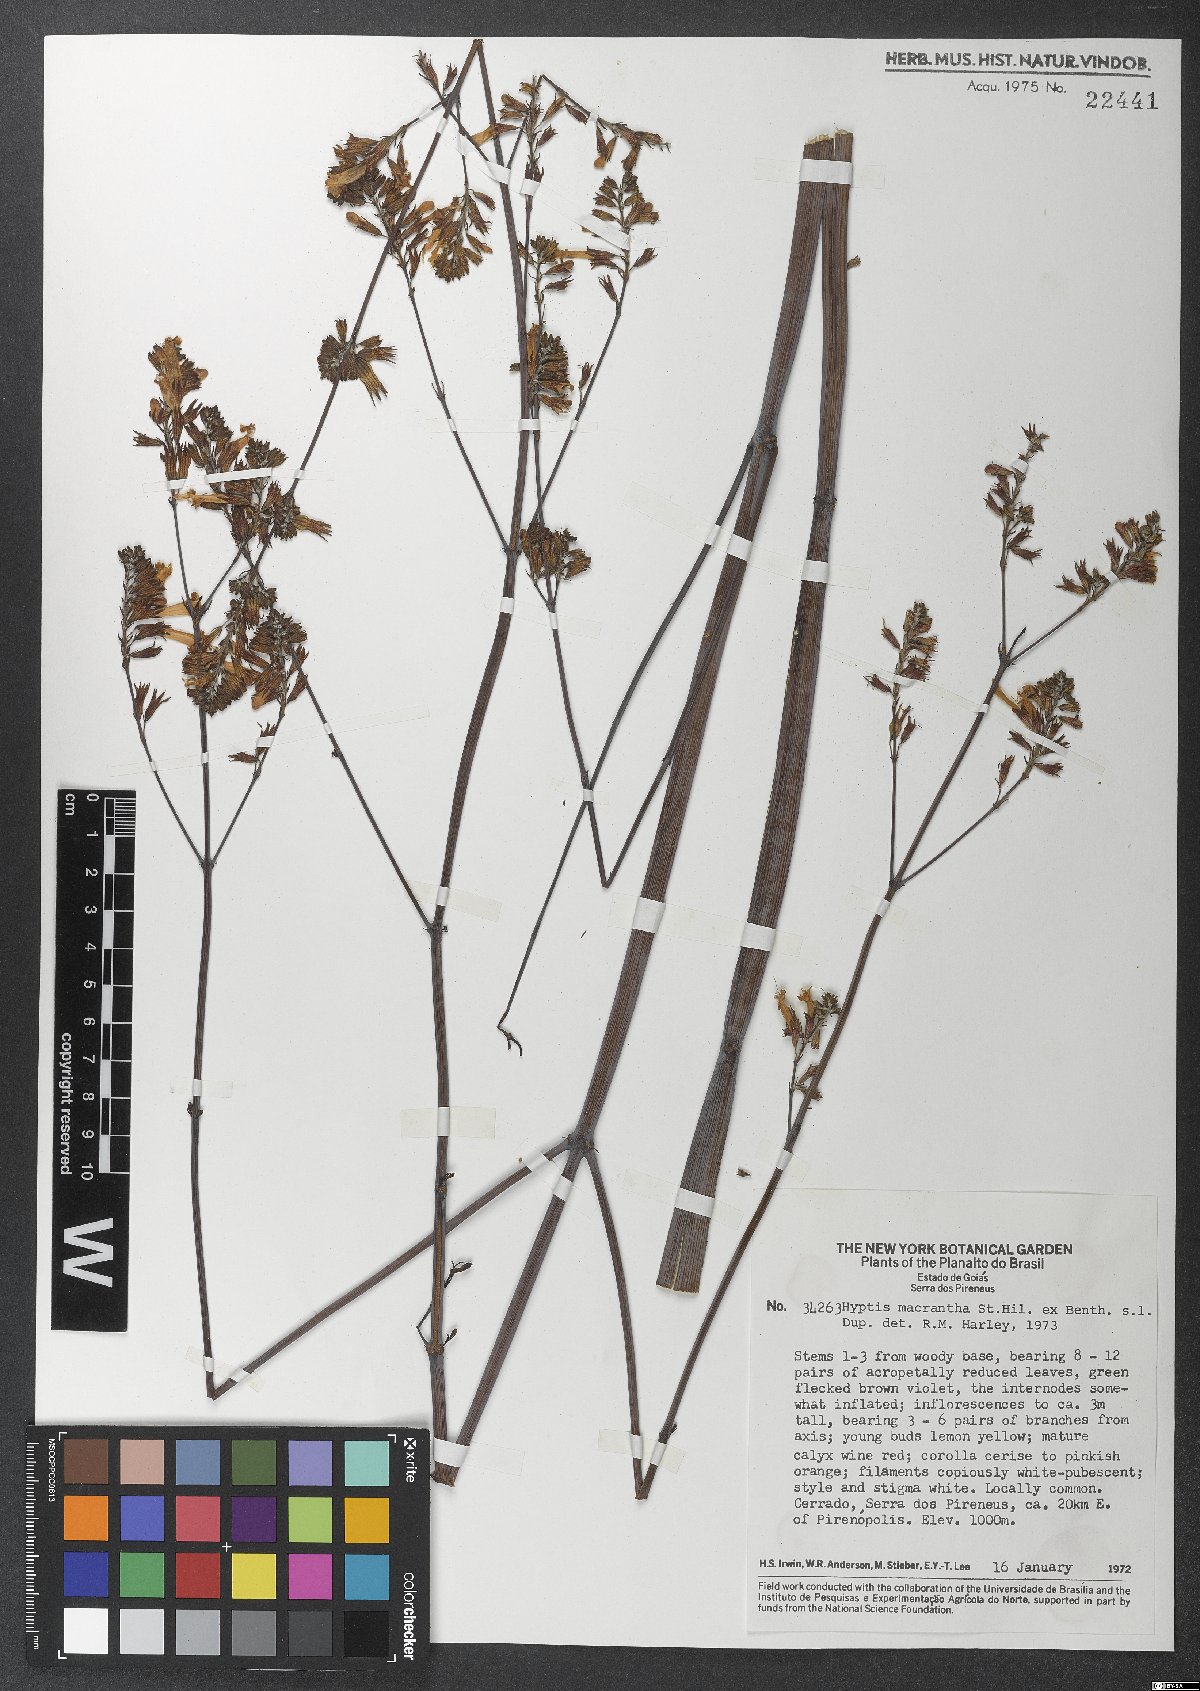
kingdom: Plantae
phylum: Tracheophyta
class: Magnoliopsida
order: Lamiales
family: Lamiaceae
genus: Hypenia
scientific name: Hypenia macrantha
